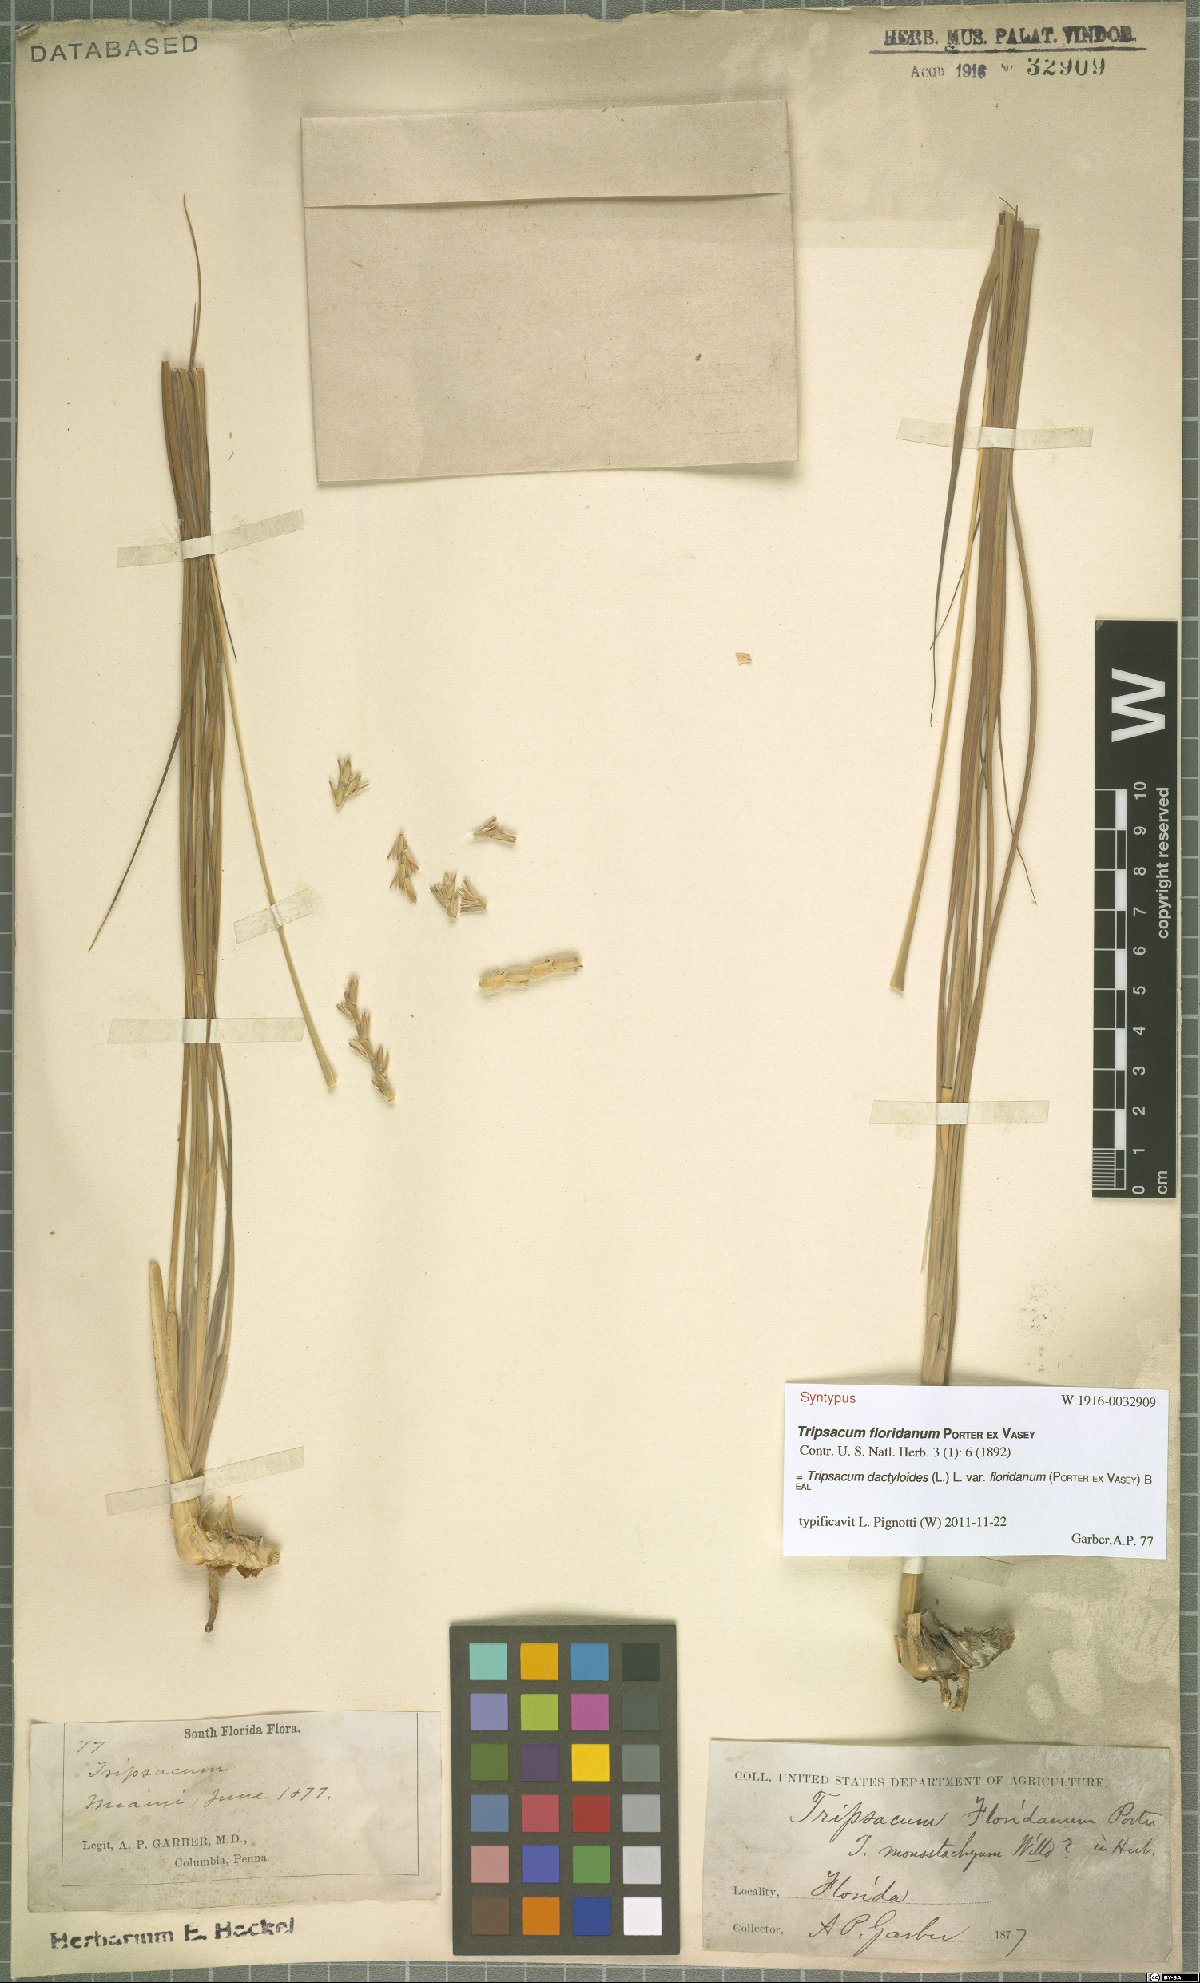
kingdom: Plantae
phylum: Tracheophyta
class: Liliopsida
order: Poales
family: Poaceae
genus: Tripsacum
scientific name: Tripsacum dactyloides
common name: Buffalo-grass
